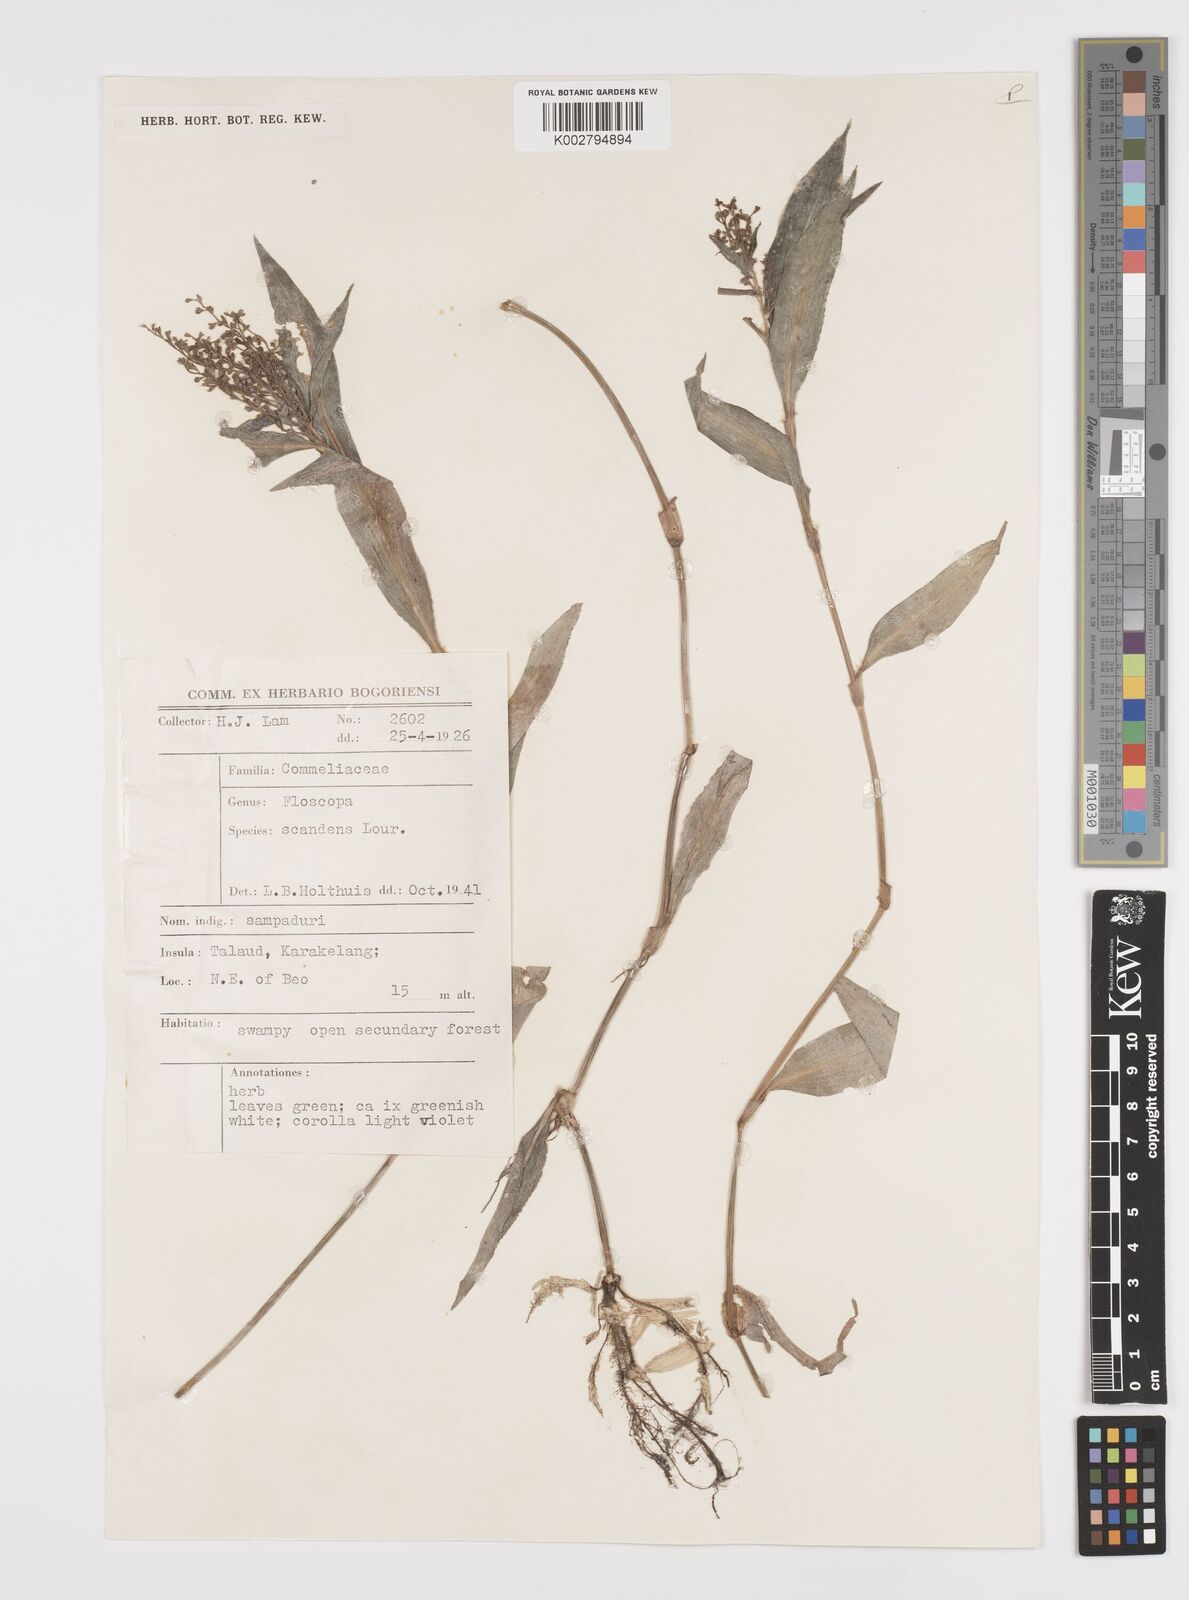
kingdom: Plantae
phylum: Tracheophyta
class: Liliopsida
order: Commelinales
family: Commelinaceae
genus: Floscopa
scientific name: Floscopa scandens
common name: Climbing flower cup
